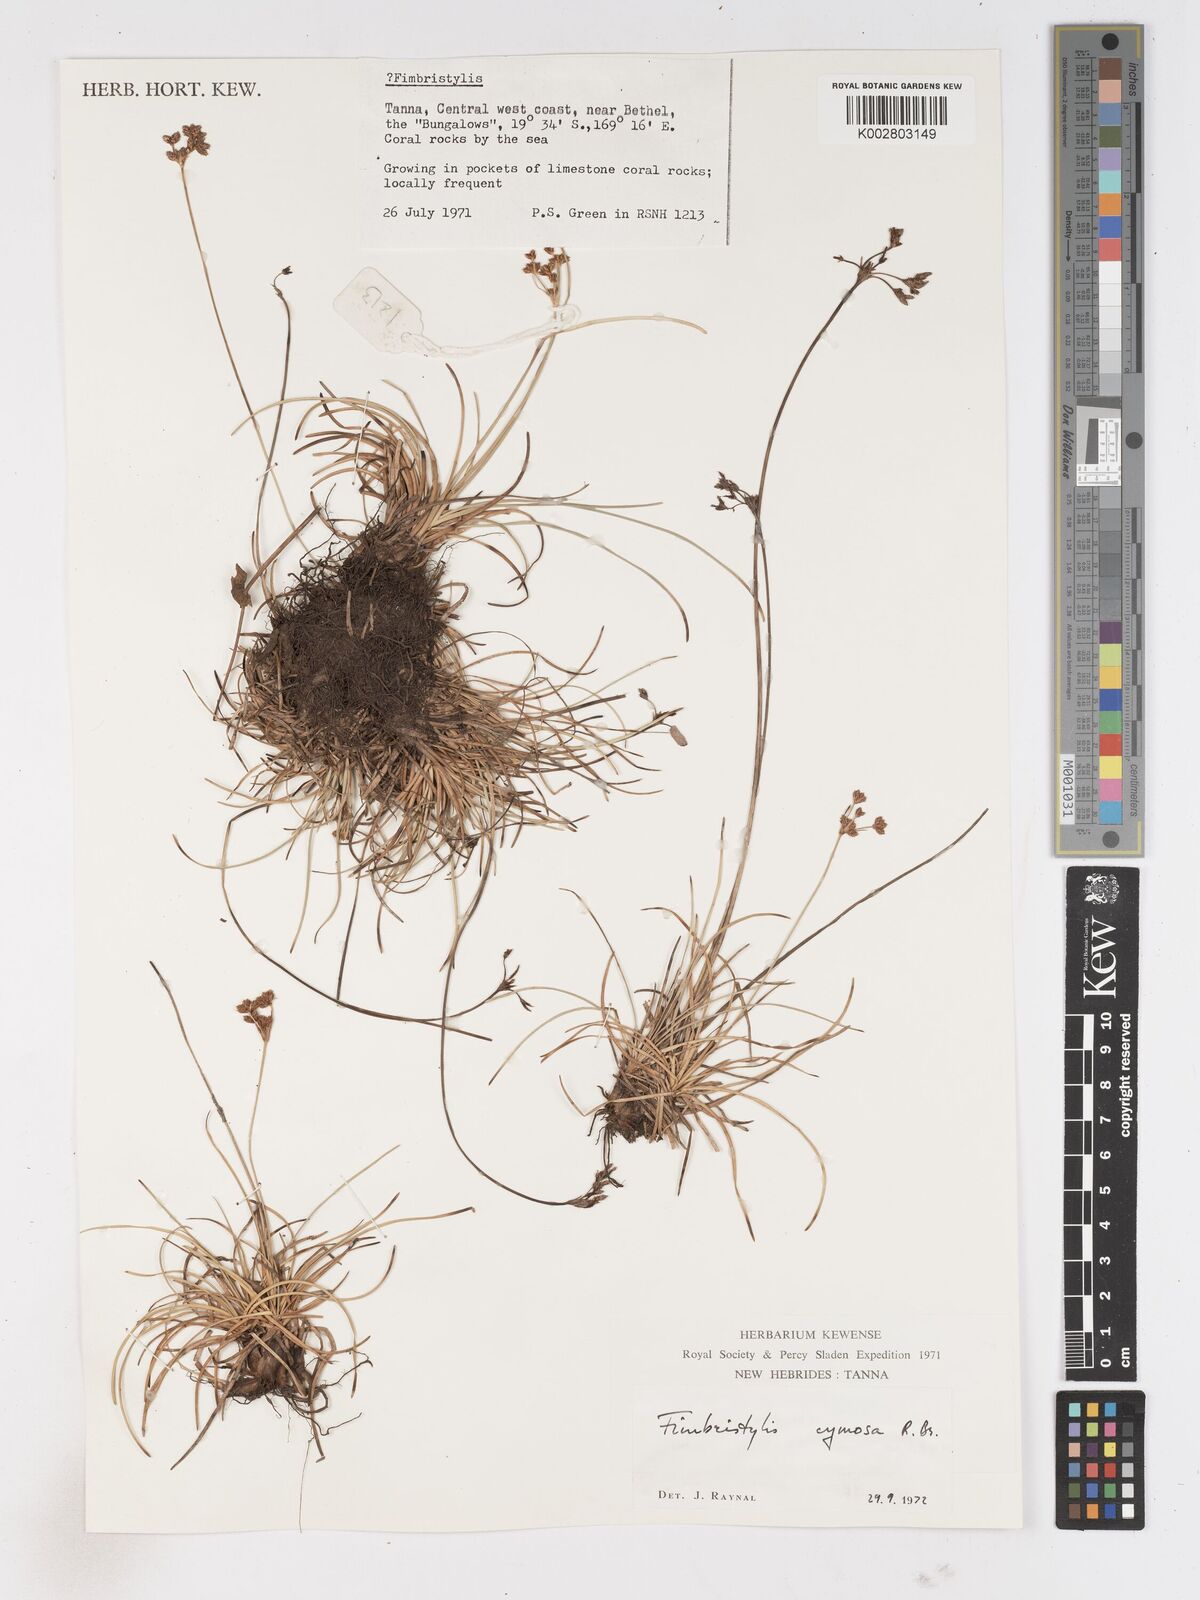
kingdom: Plantae
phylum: Tracheophyta
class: Liliopsida
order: Poales
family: Cyperaceae
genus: Fimbristylis
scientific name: Fimbristylis cymosa
